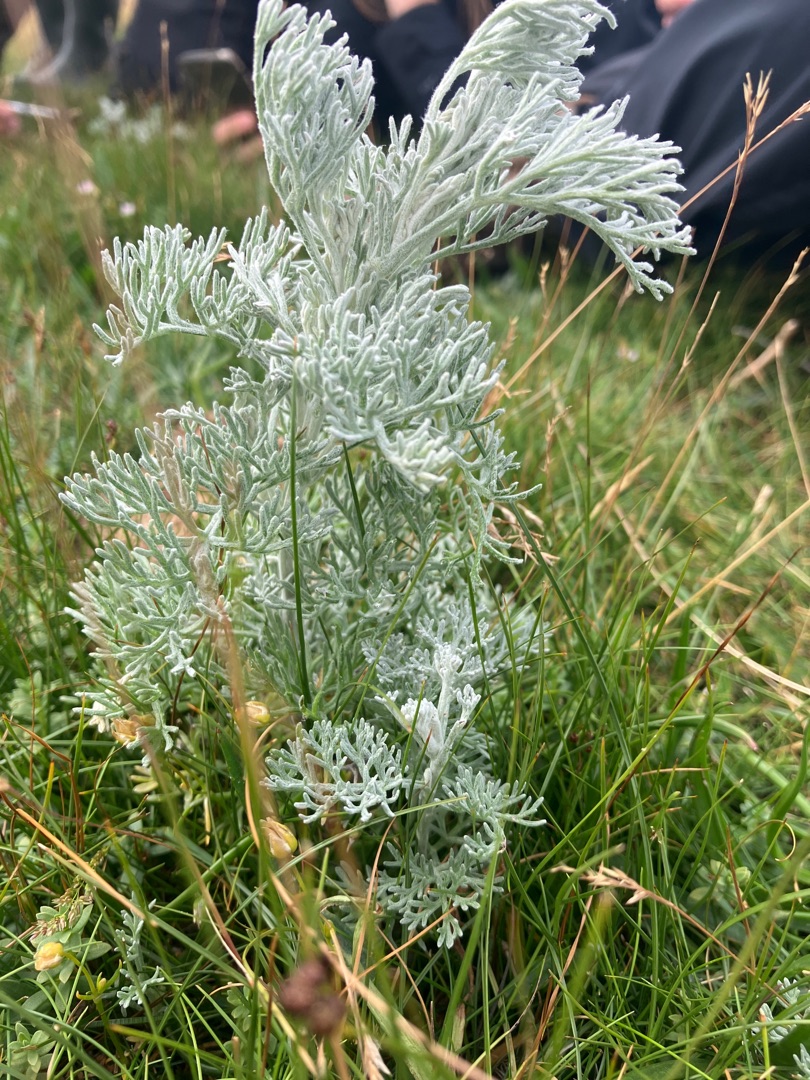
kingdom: Plantae
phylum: Tracheophyta
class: Magnoliopsida
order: Asterales
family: Asteraceae
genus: Artemisia
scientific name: Artemisia maritima
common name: Strandmalurt
